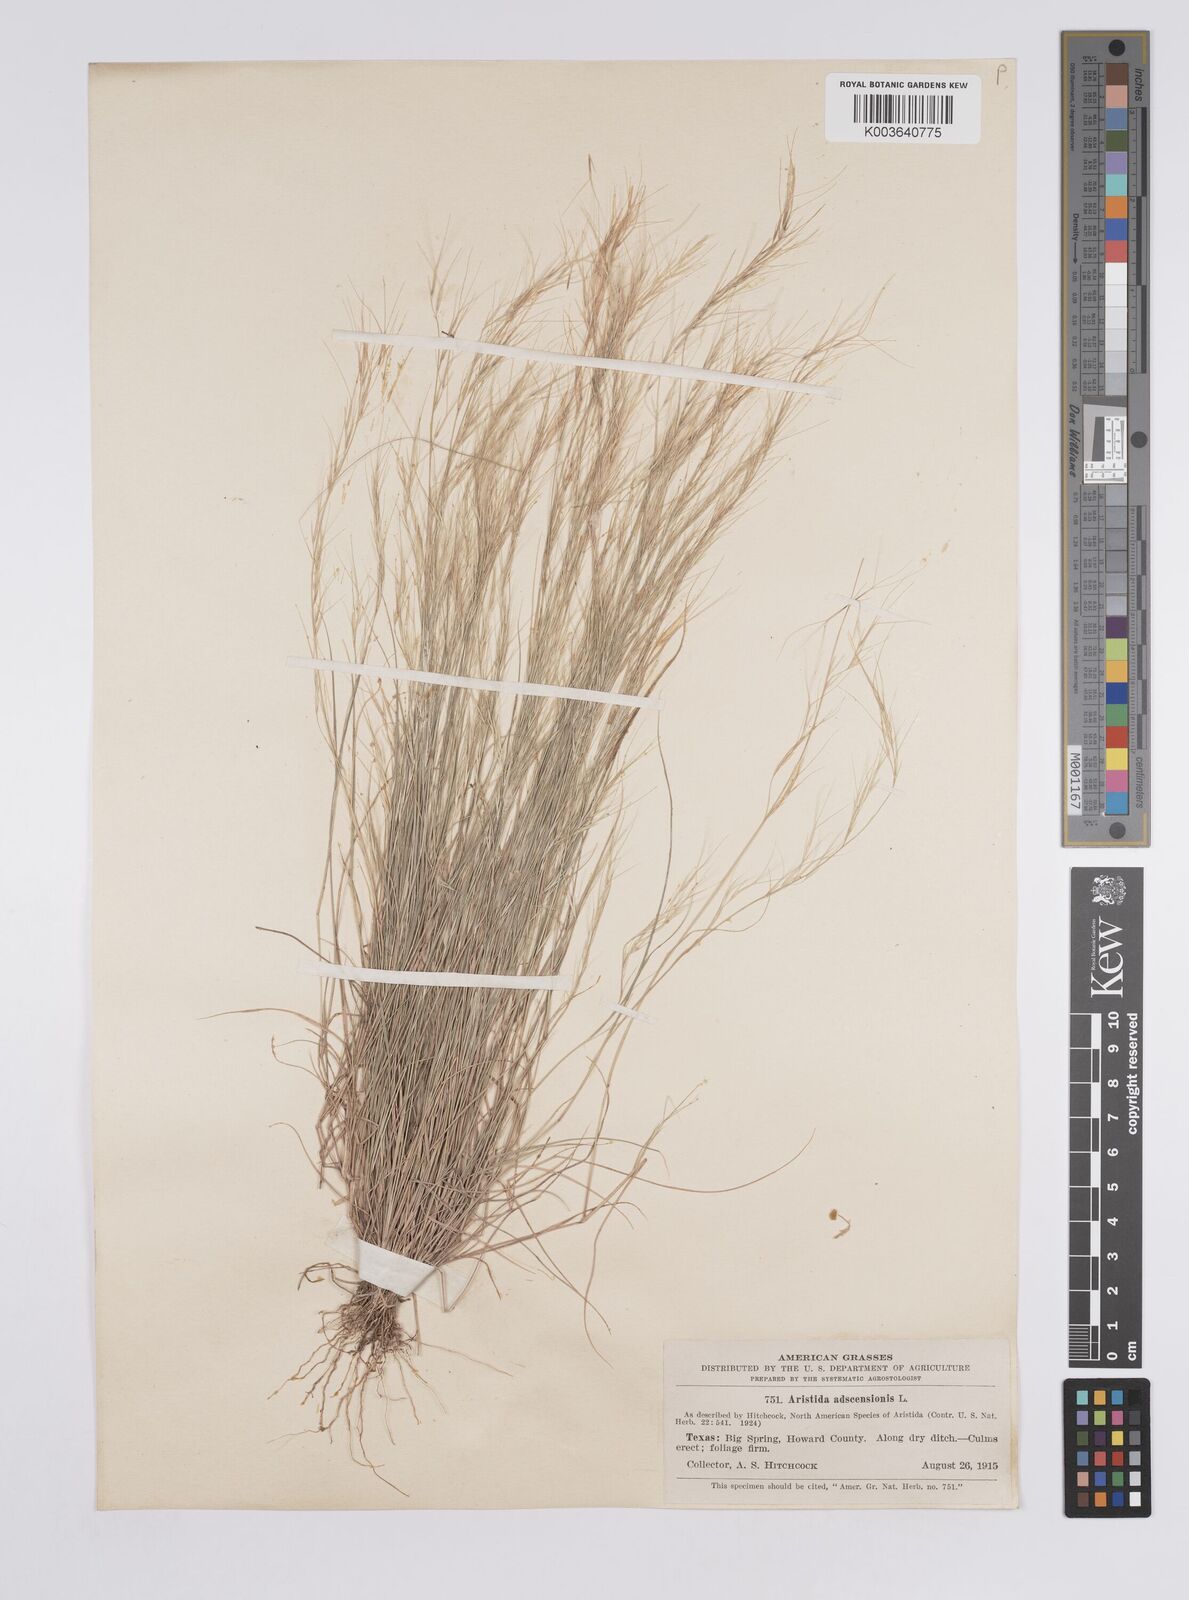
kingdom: Plantae
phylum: Tracheophyta
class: Liliopsida
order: Poales
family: Poaceae
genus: Aristida
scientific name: Aristida adscensionis
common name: Sixweeks threeawn
